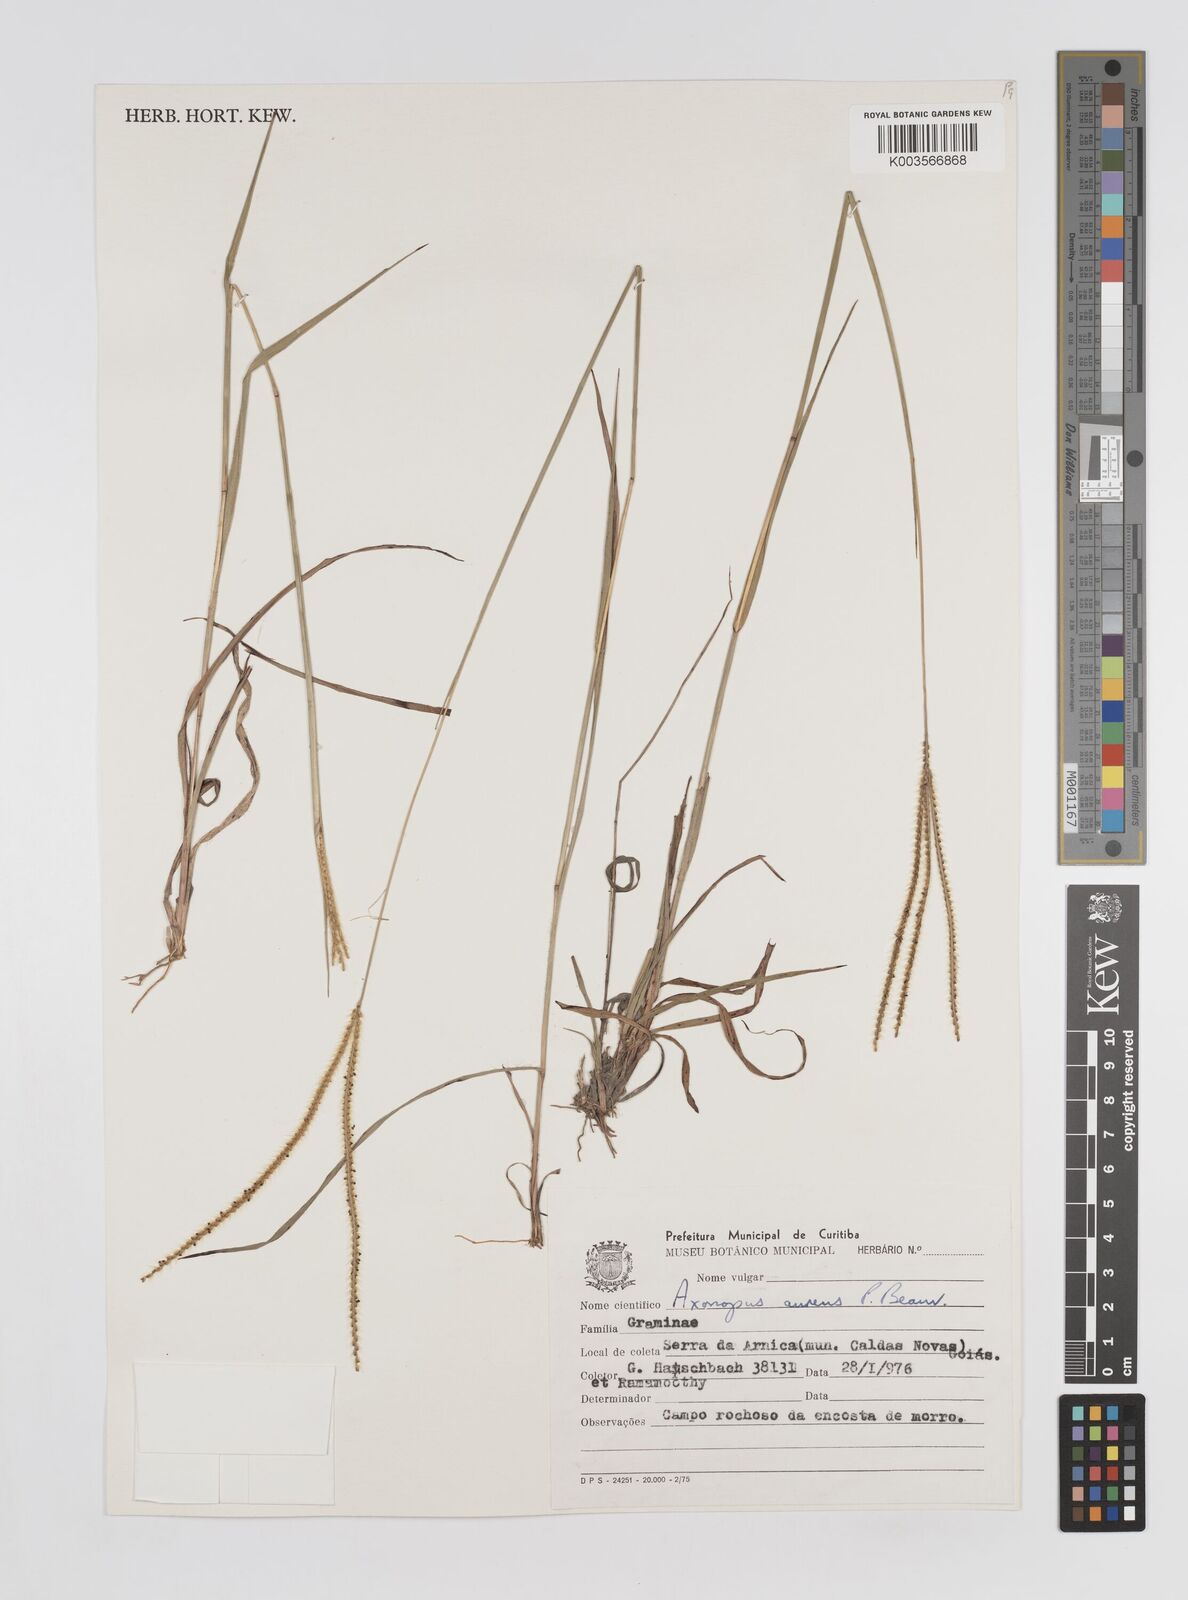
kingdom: Plantae
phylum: Tracheophyta
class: Liliopsida
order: Poales
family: Poaceae
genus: Axonopus
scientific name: Axonopus aureus
